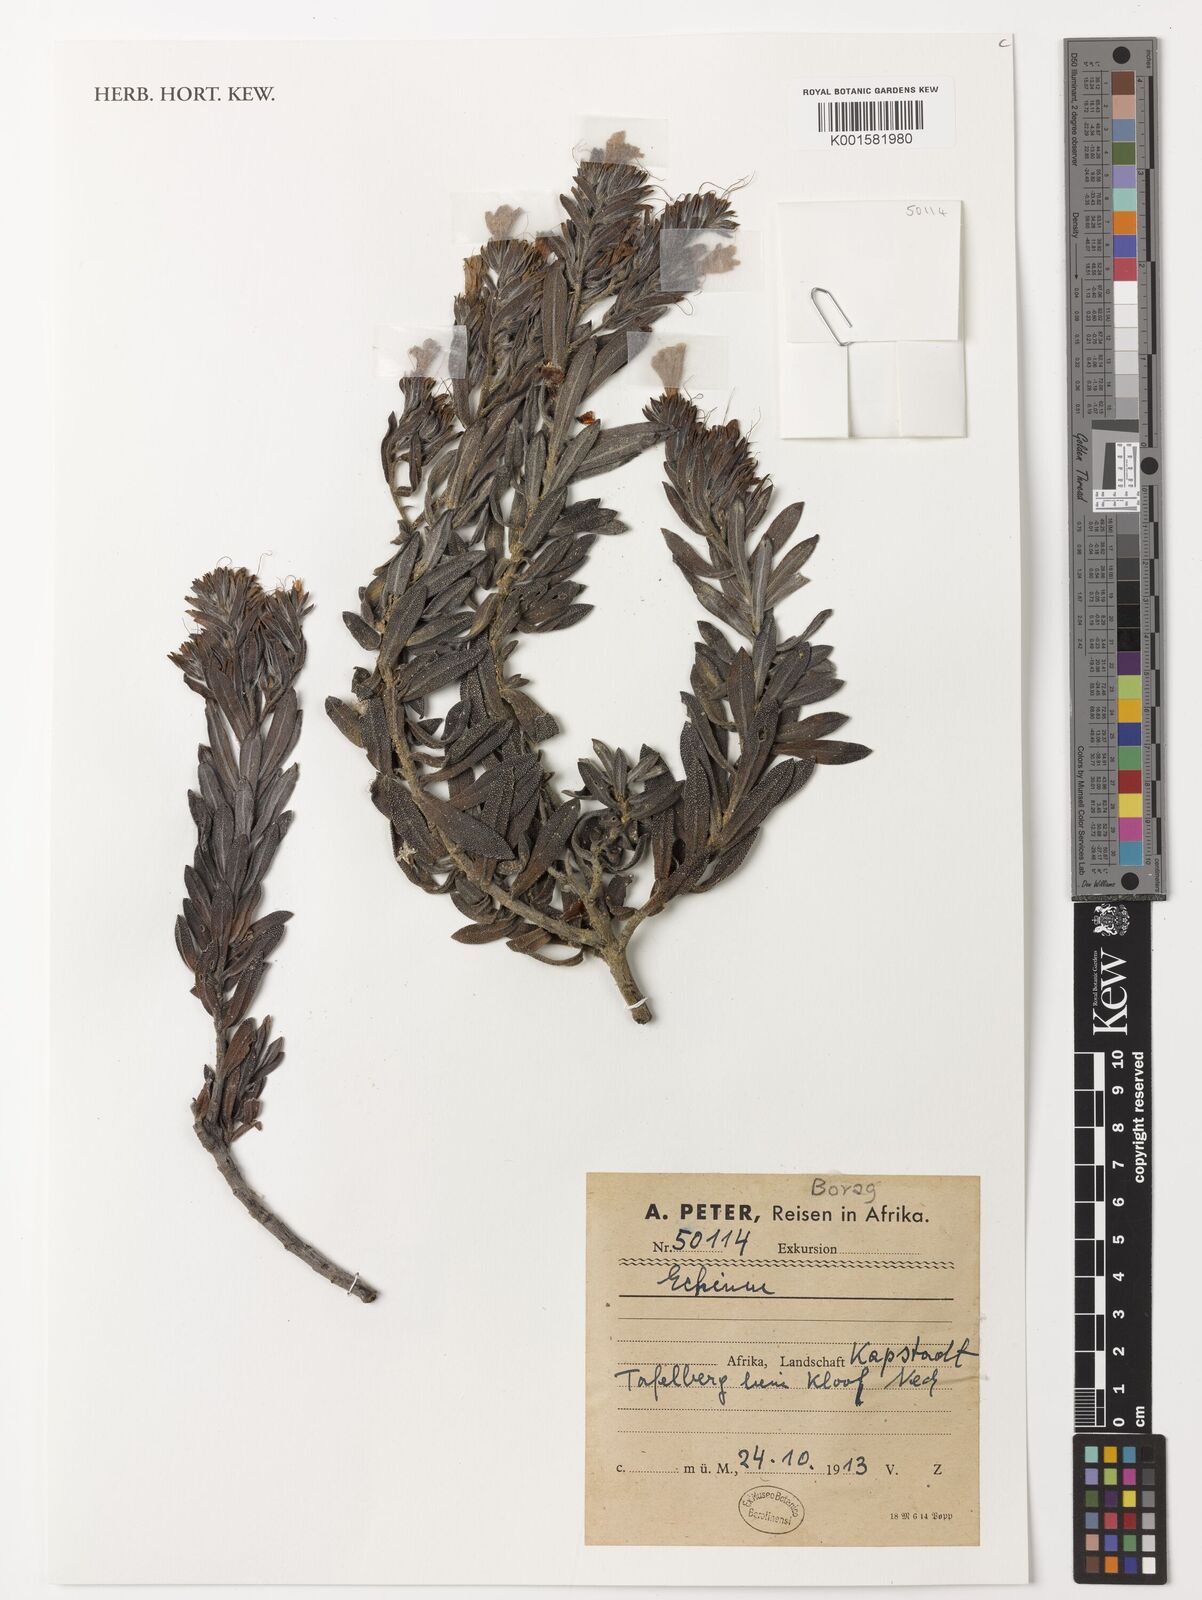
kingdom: Plantae
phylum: Tracheophyta
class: Magnoliopsida
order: Boraginales
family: Boraginaceae
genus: Echium
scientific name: Echium
